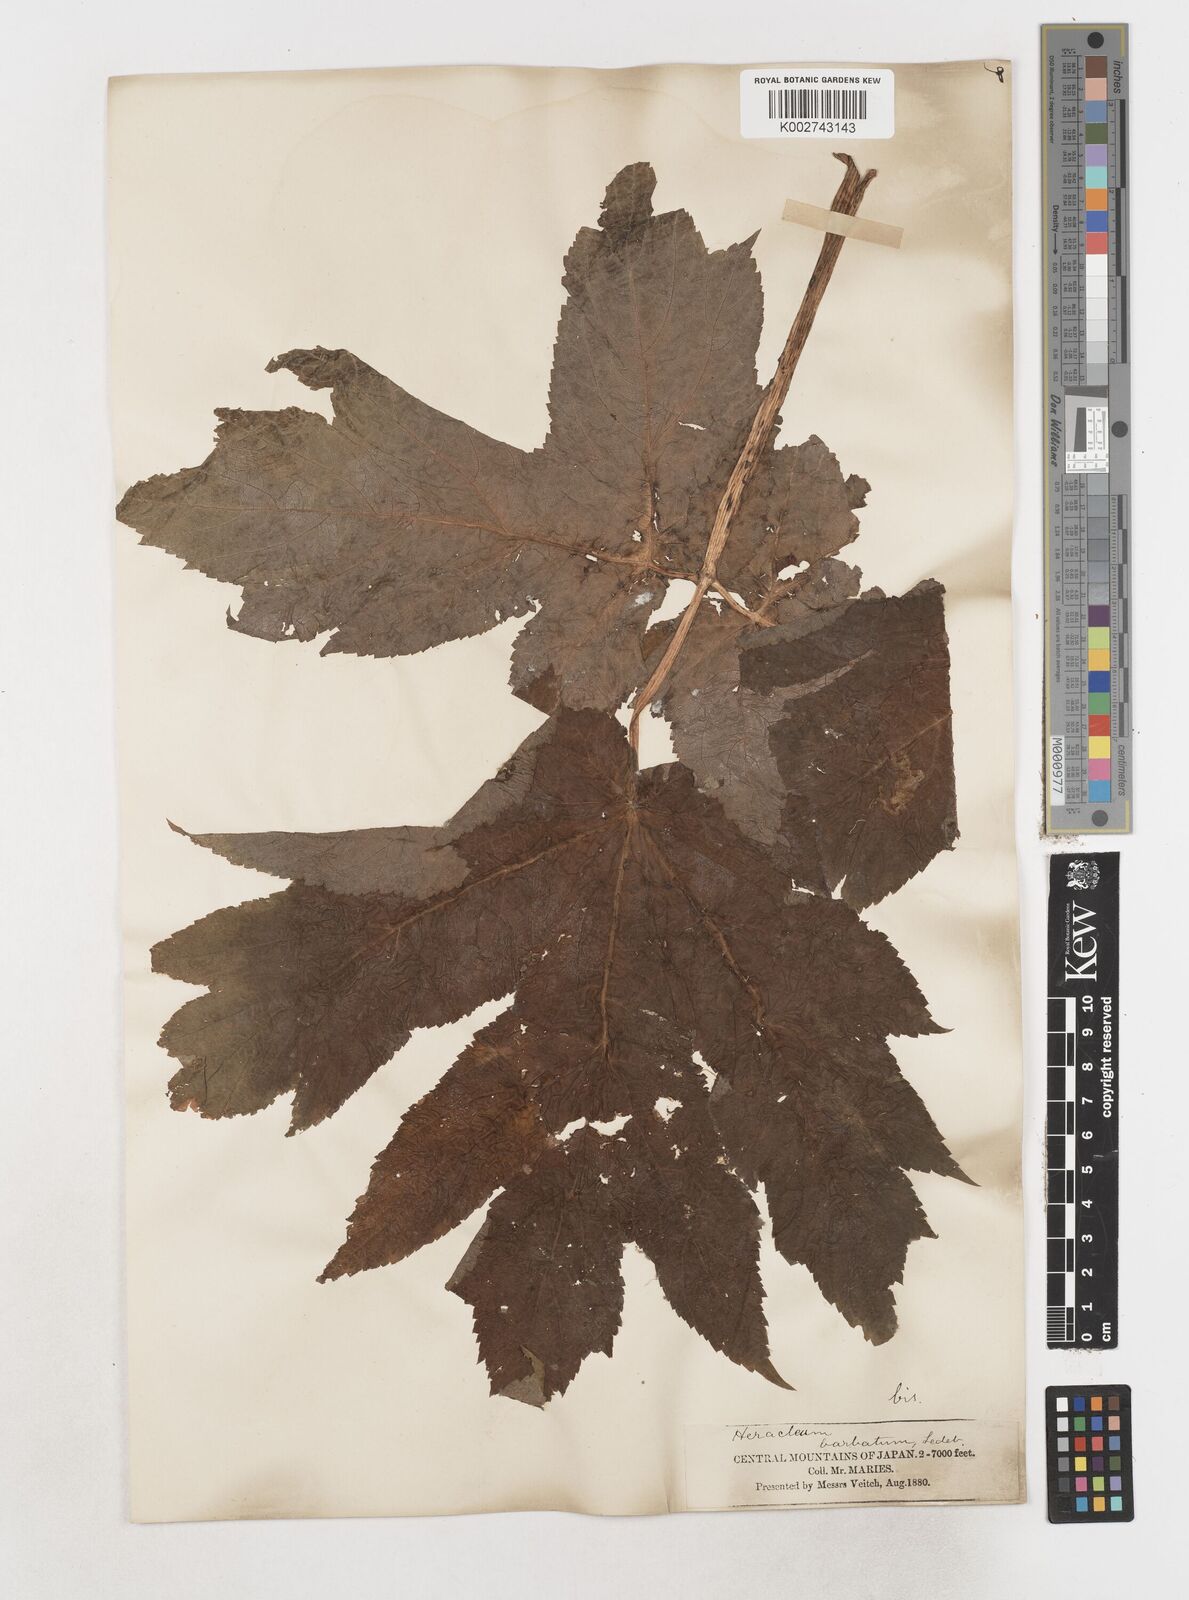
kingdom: Plantae
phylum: Tracheophyta
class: Magnoliopsida
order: Apiales
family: Apiaceae
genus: Heracleum
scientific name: Heracleum dissectum
